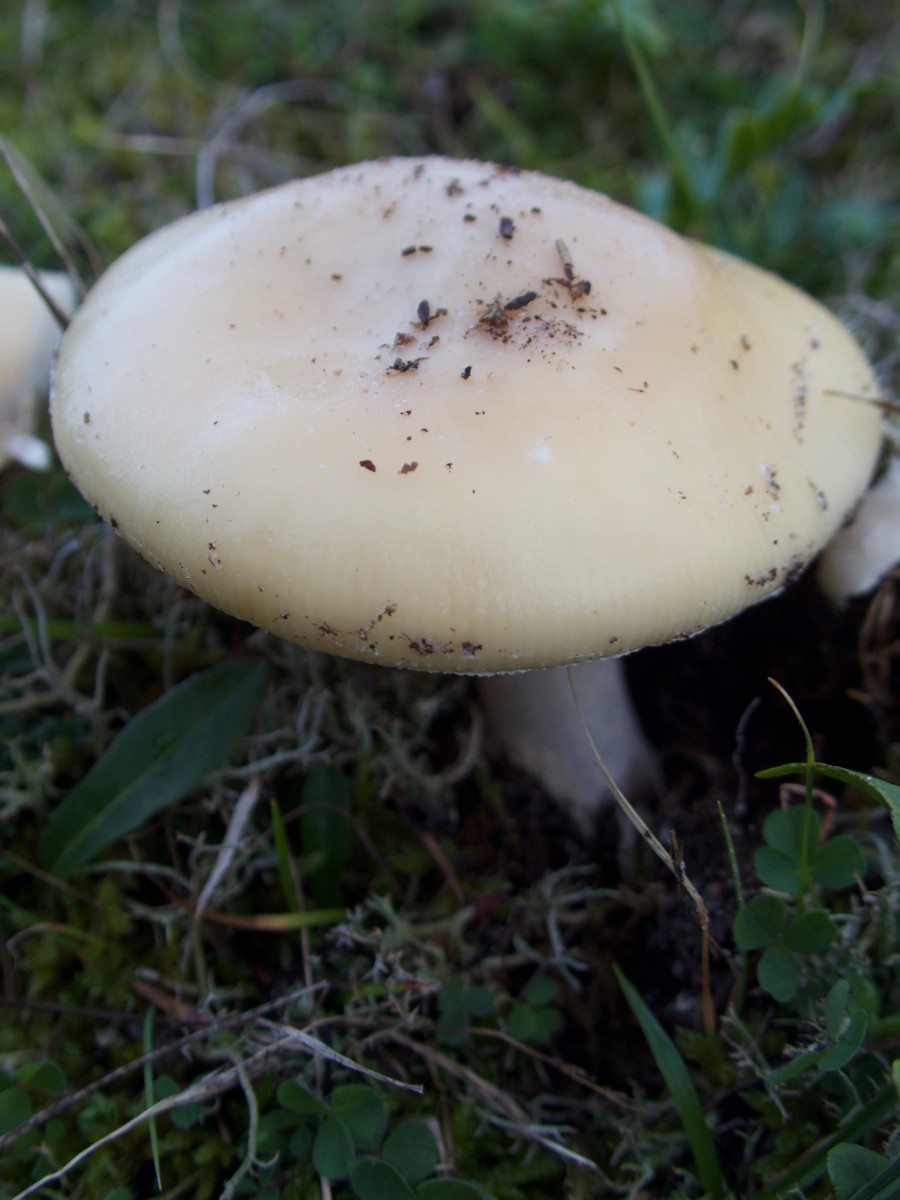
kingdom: Fungi
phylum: Basidiomycota
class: Agaricomycetes
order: Agaricales
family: Amanitaceae
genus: Amanita
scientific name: Amanita gemmata
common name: okkergul fluesvamp
